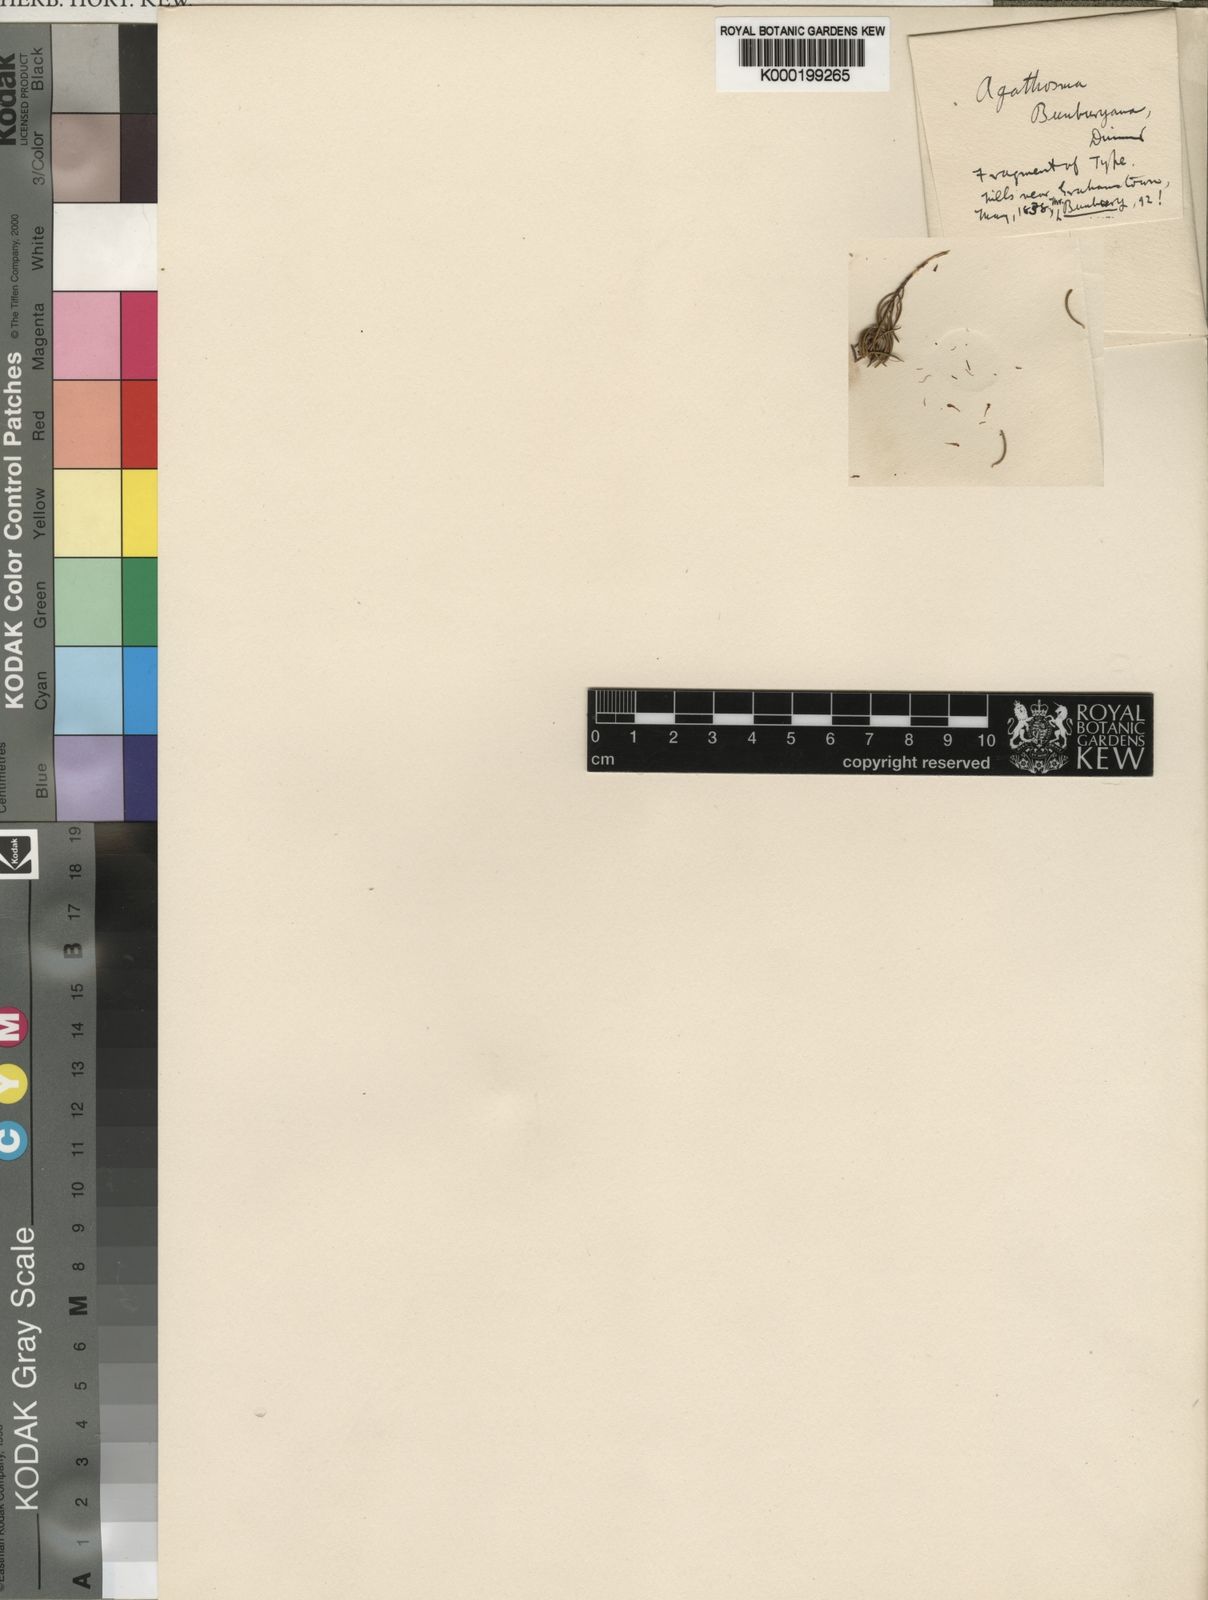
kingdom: Plantae
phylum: Tracheophyta
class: Magnoliopsida
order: Sapindales
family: Rutaceae
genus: Agathosma
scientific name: Agathosma peglerae
